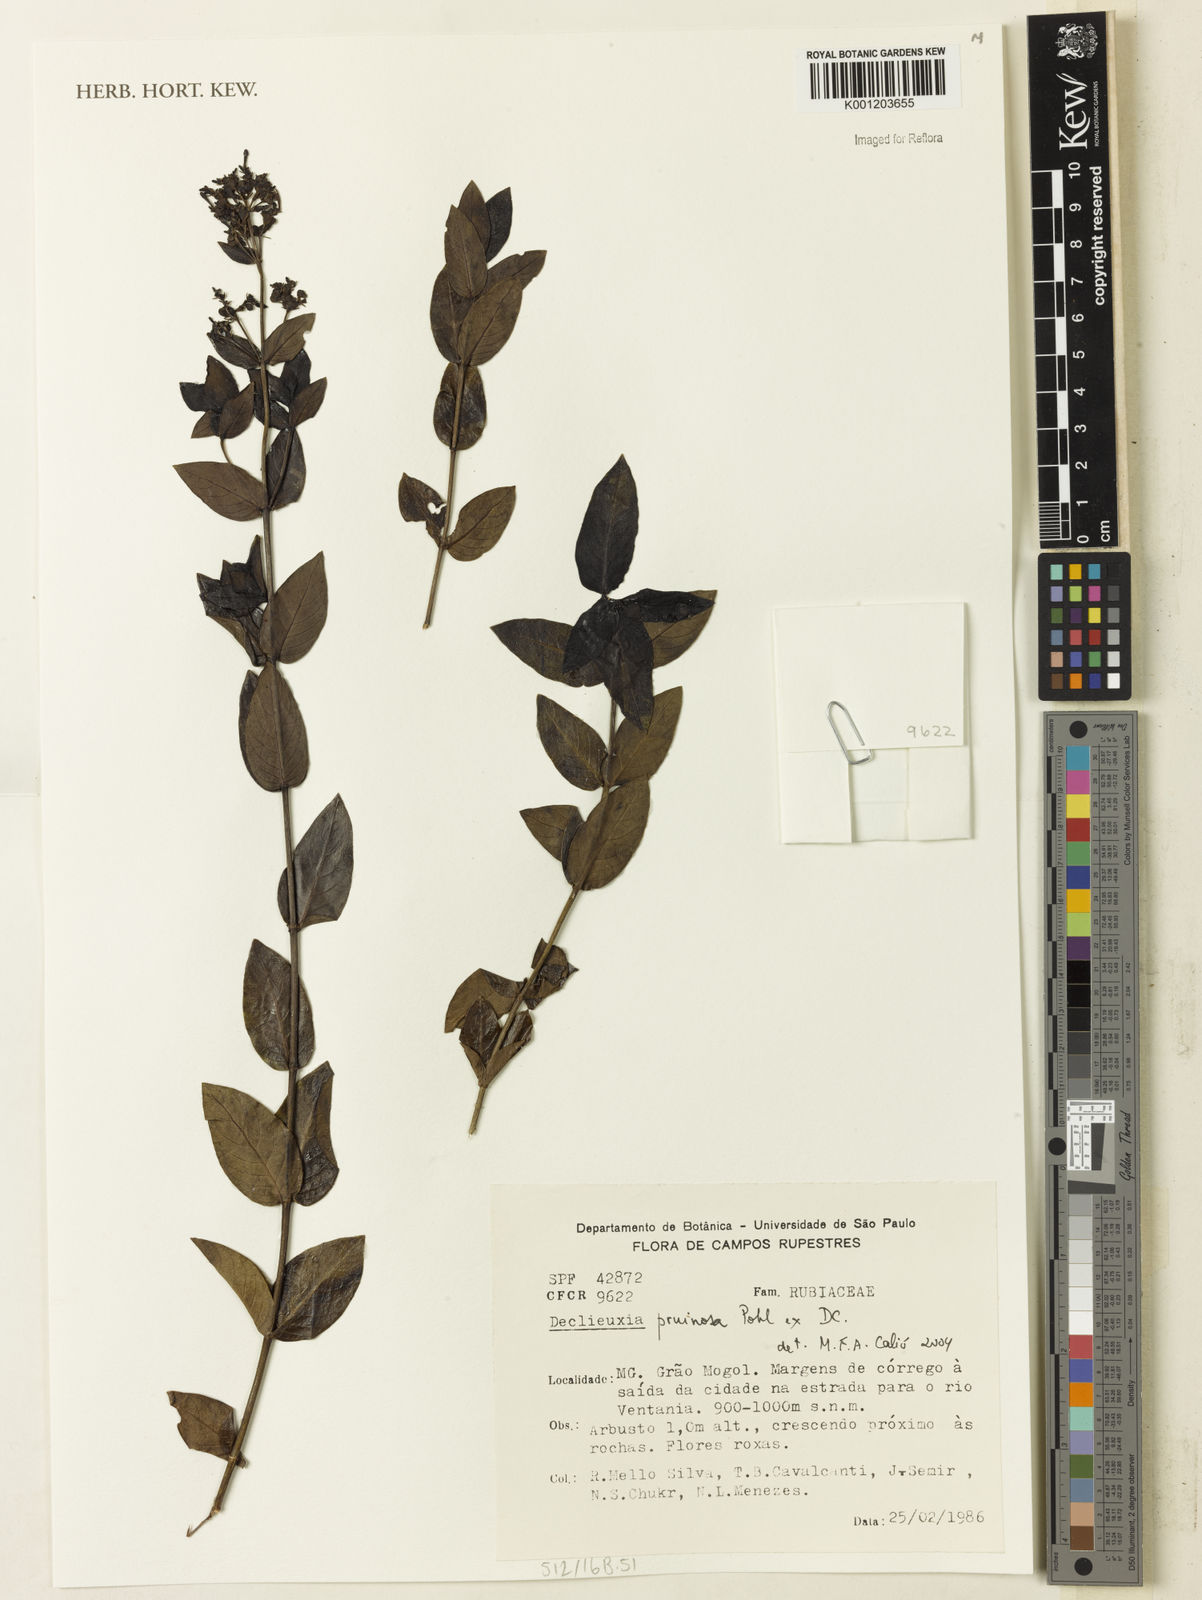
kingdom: Plantae
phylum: Tracheophyta
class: Magnoliopsida
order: Gentianales
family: Rubiaceae
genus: Declieuxia
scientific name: Declieuxia pruinosa
